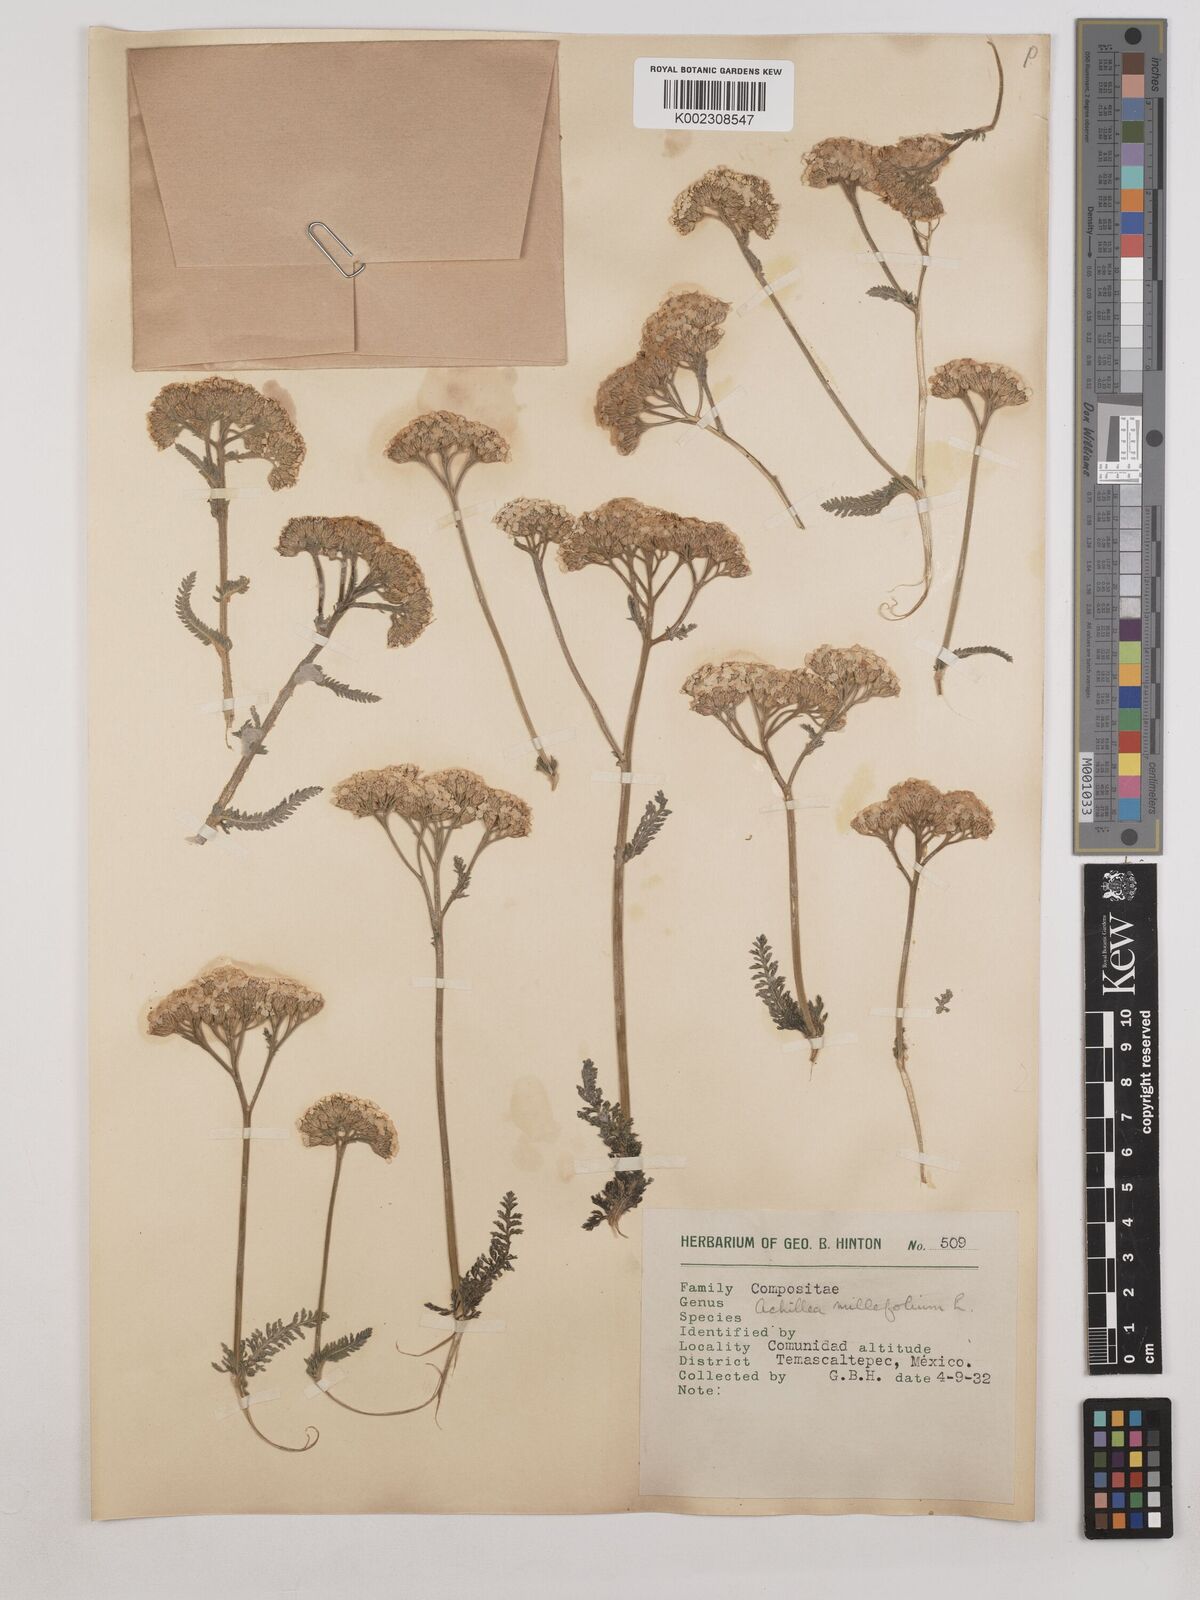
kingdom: Plantae
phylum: Tracheophyta
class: Magnoliopsida
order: Asterales
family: Asteraceae
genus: Achillea
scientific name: Achillea millefolium
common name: Yarrow
